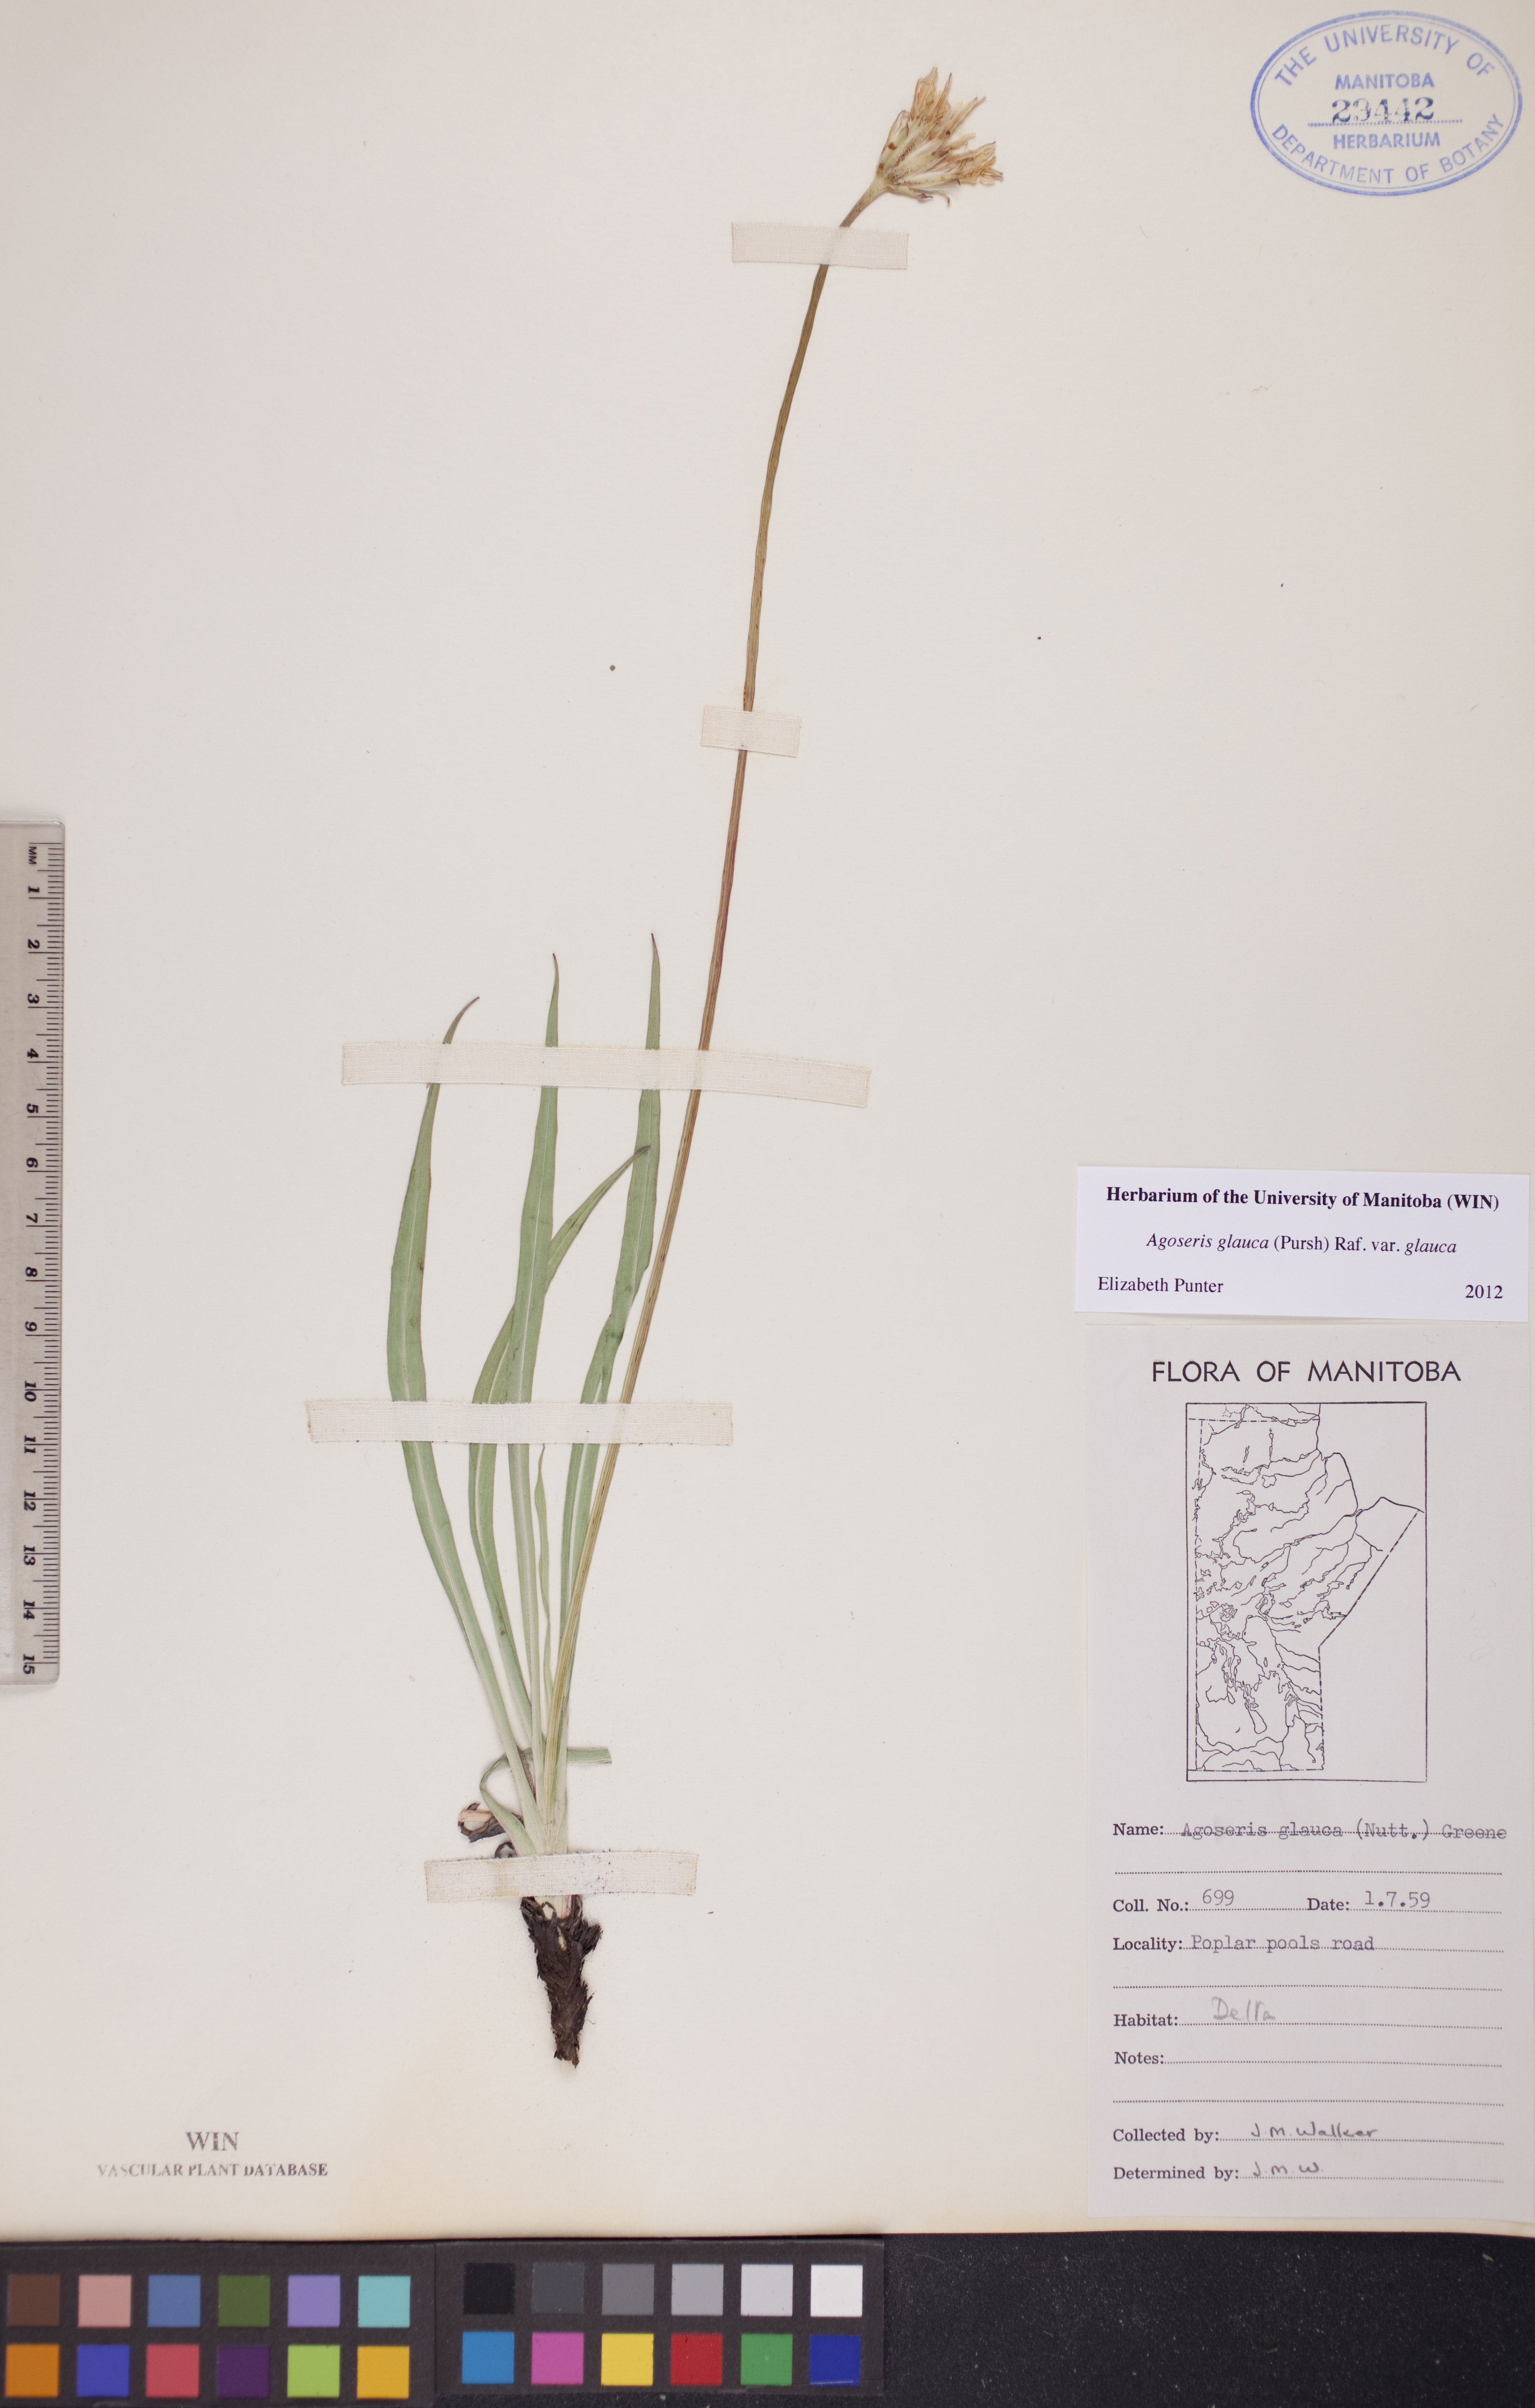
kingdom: Plantae
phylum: Tracheophyta
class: Magnoliopsida
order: Asterales
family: Asteraceae
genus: Agoseris
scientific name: Agoseris glauca
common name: Prairie agoseris
